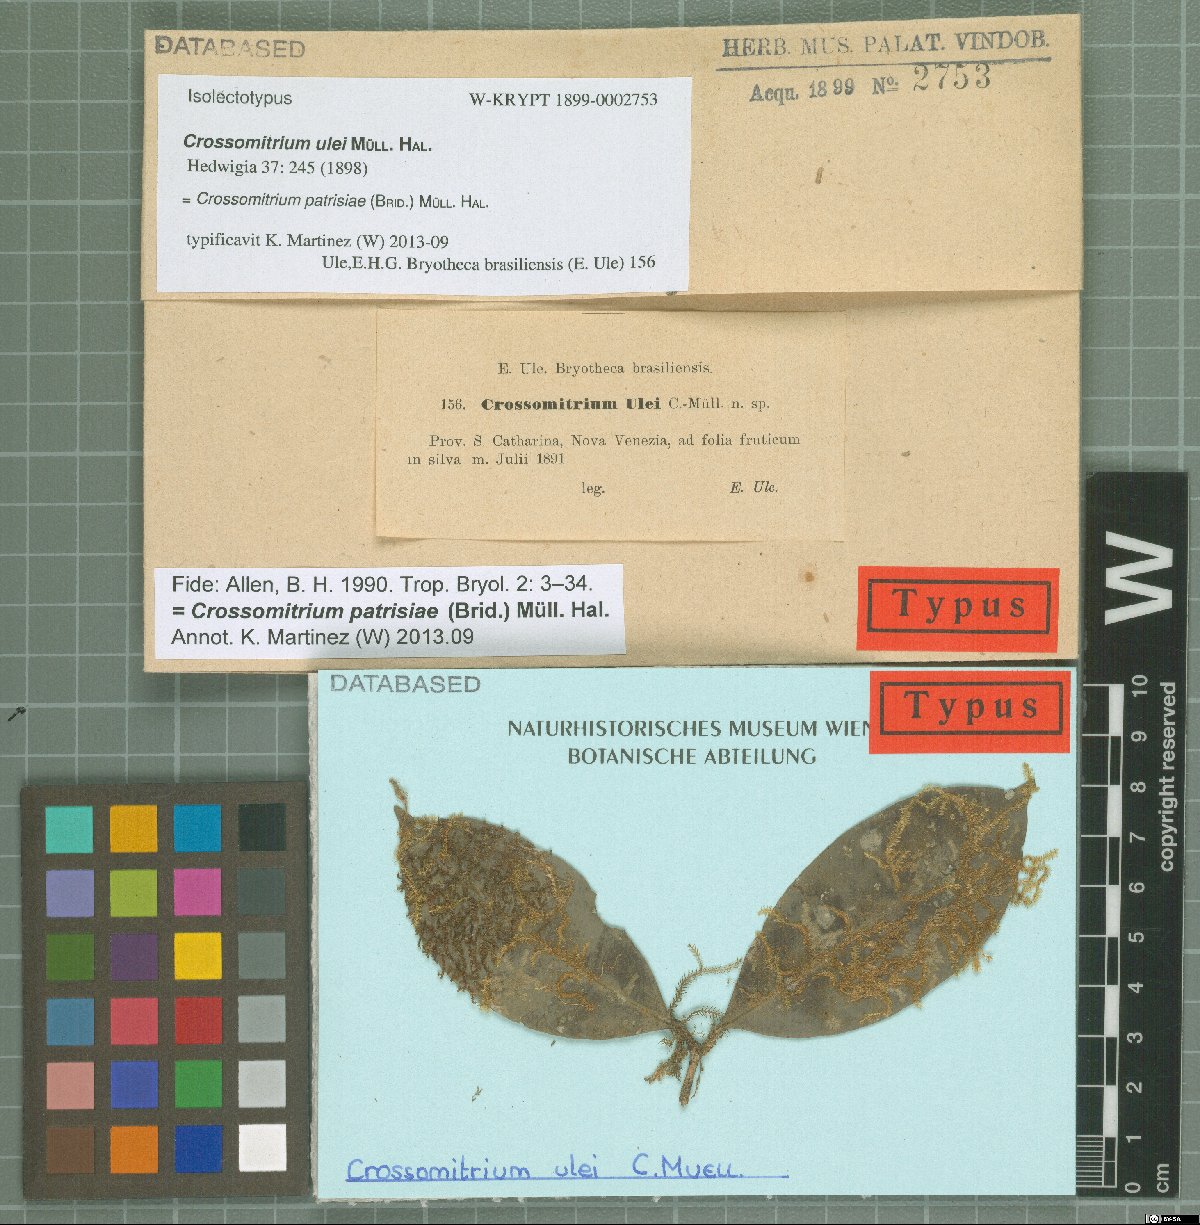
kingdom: Plantae
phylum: Bryophyta
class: Bryopsida
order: Hookeriales
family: Hookeriaceae
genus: Crossomitrium
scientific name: Crossomitrium patrisiae
